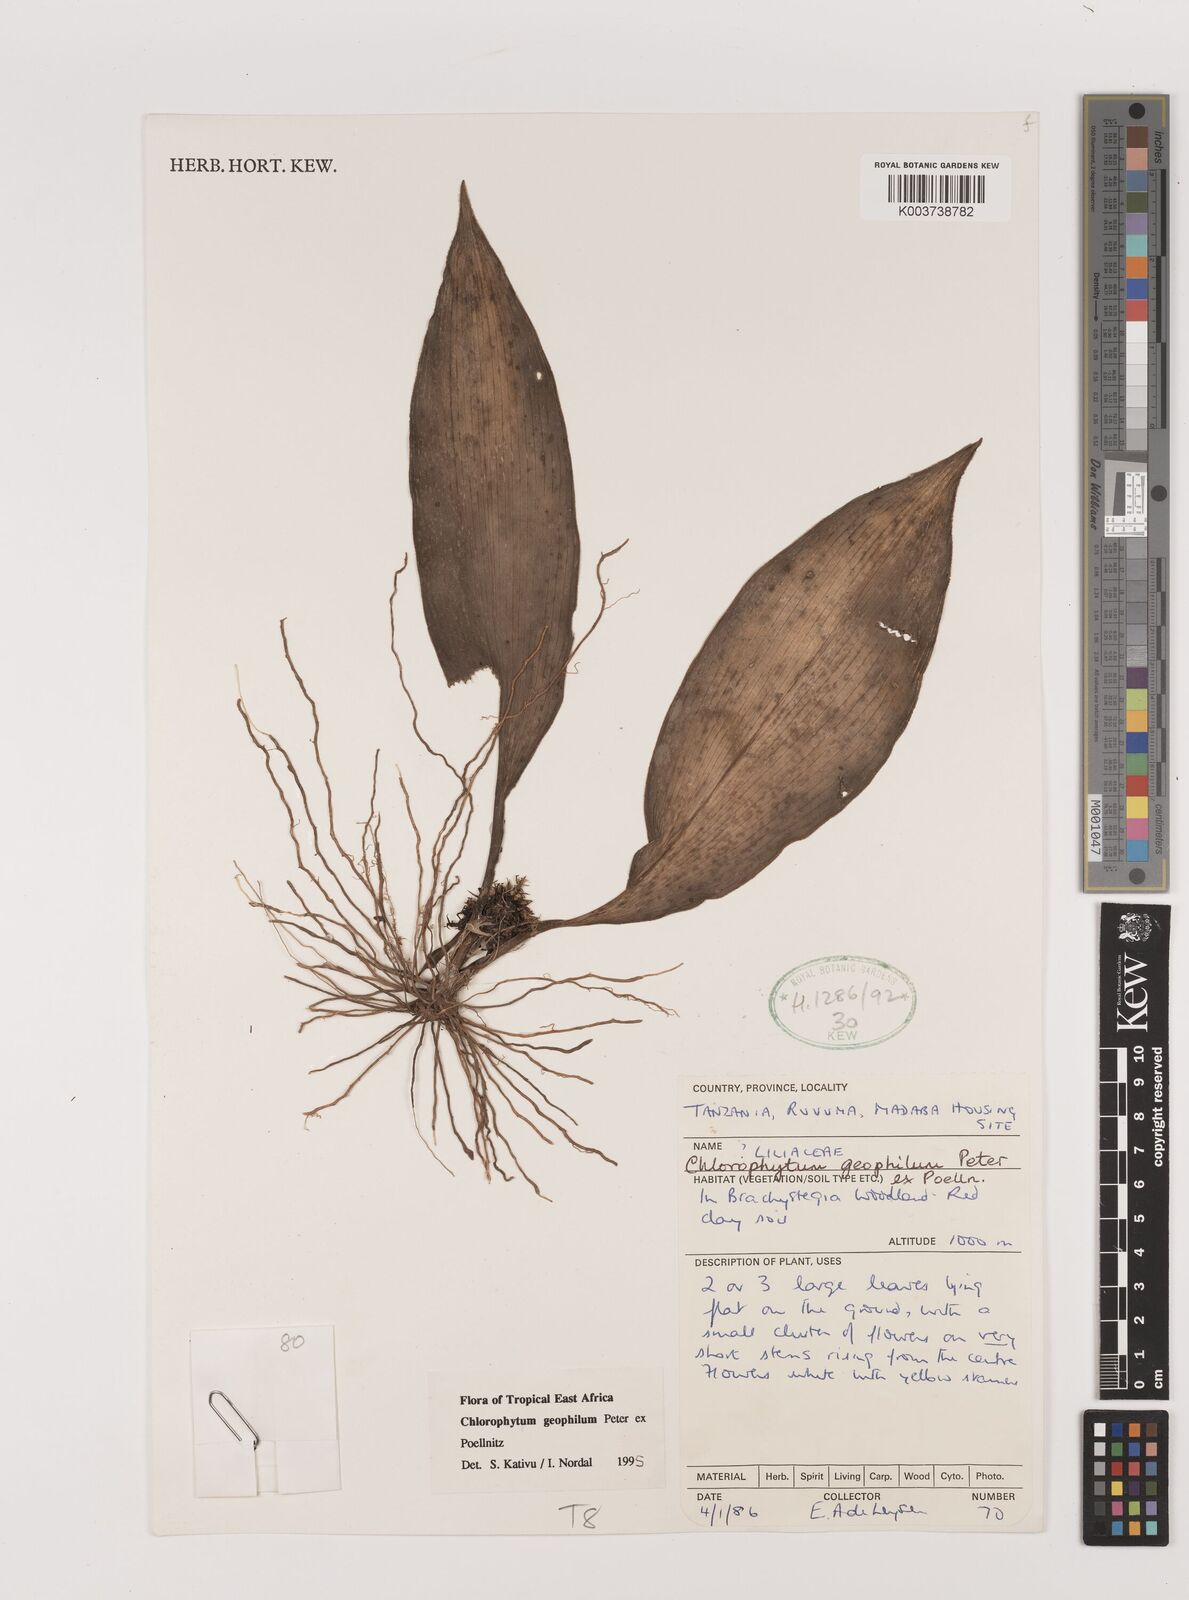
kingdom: Plantae
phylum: Tracheophyta
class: Liliopsida
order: Asparagales
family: Asparagaceae
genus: Chlorophytum
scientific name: Chlorophytum geophilum
